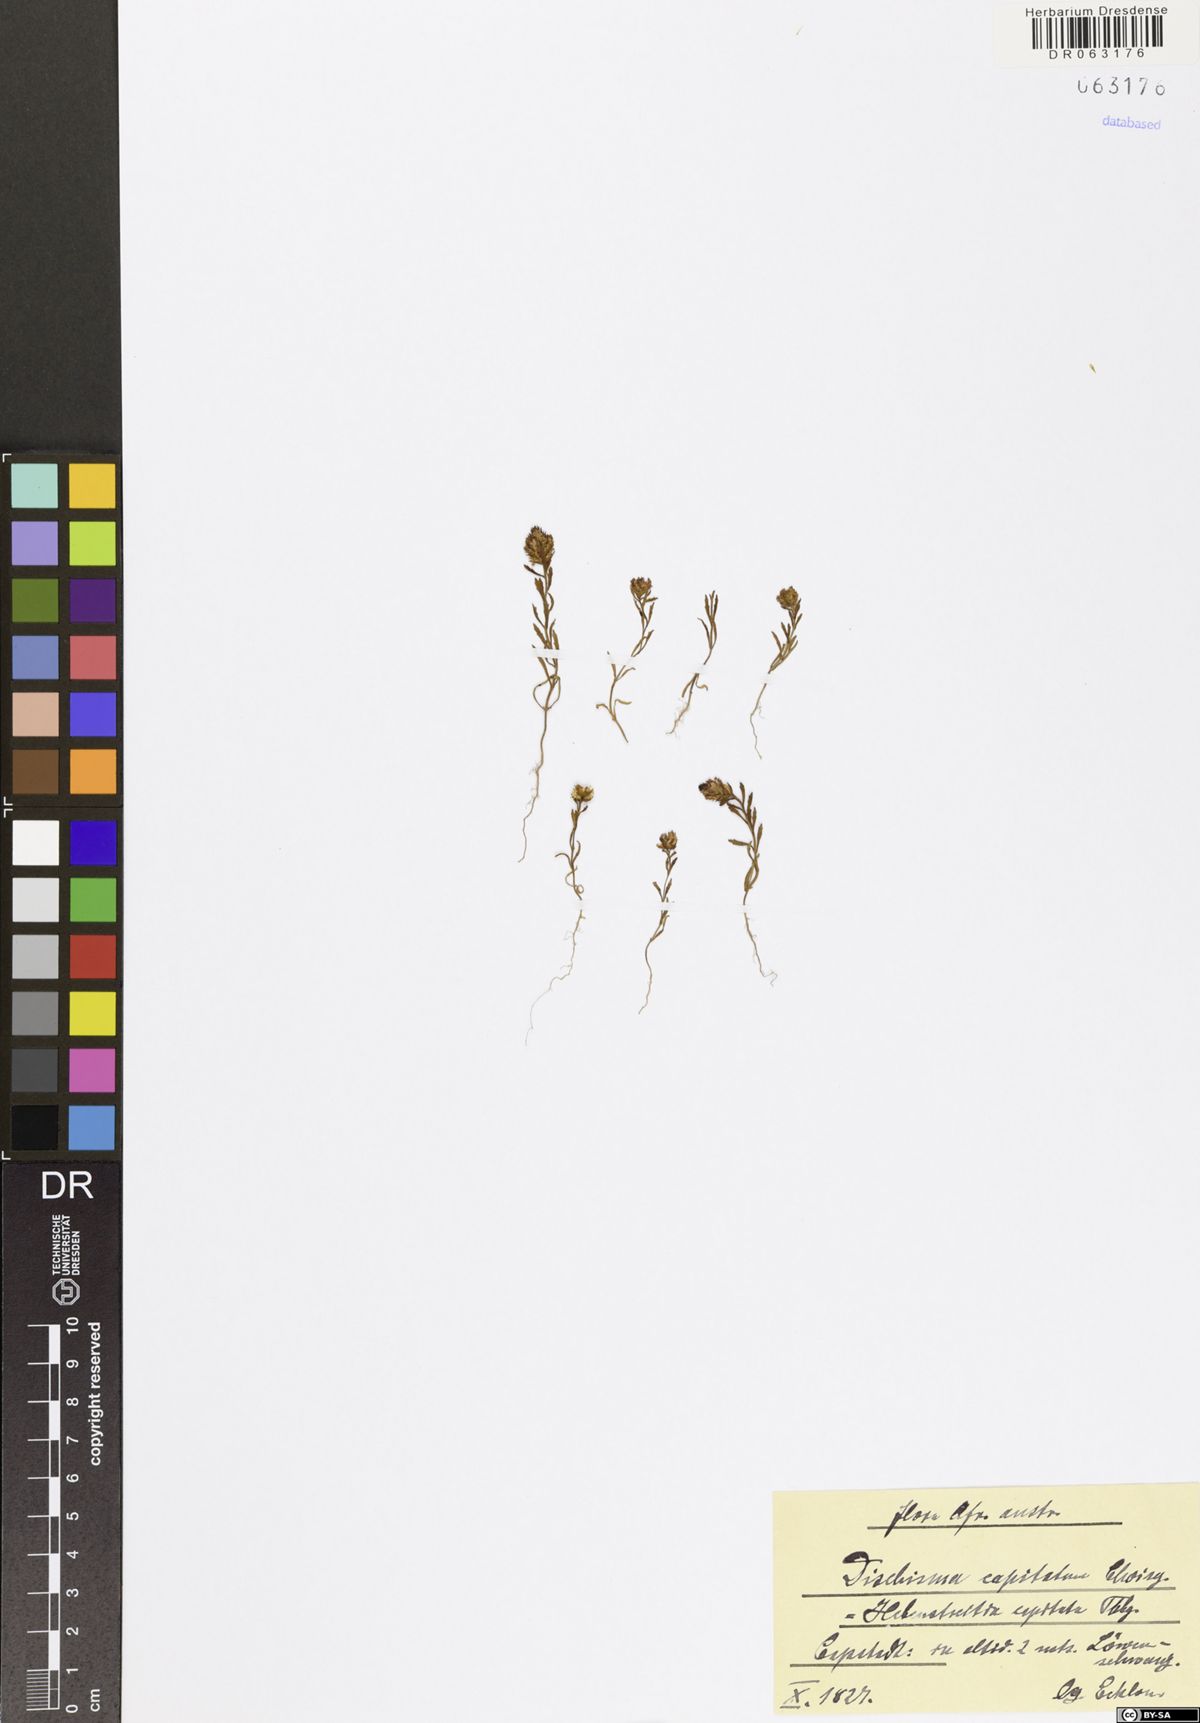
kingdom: Plantae
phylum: Tracheophyta
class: Magnoliopsida
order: Lamiales
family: Scrophulariaceae
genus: Dischisma
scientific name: Dischisma capitatum
